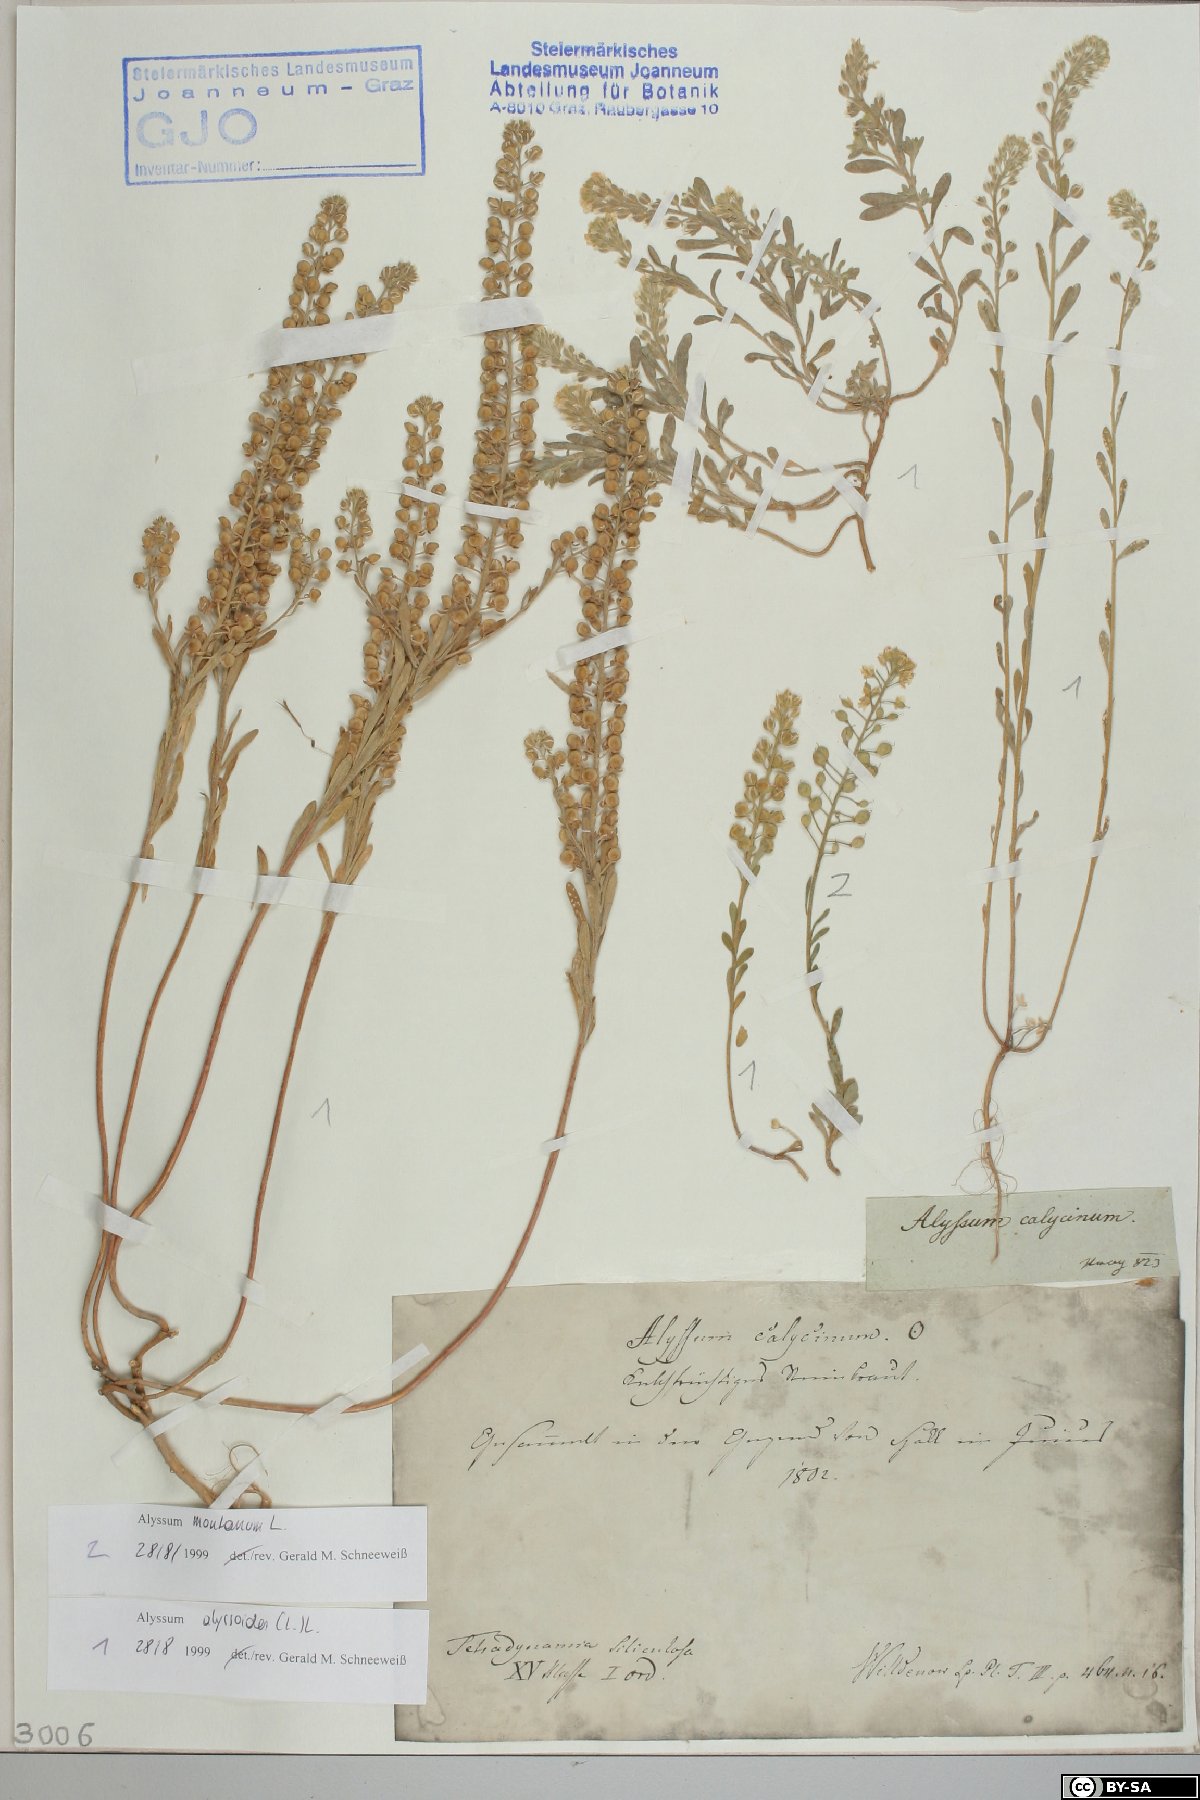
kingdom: Plantae
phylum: Tracheophyta
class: Magnoliopsida
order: Brassicales
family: Brassicaceae
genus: Alyssum
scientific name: Alyssum alyssoides
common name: Small alison
